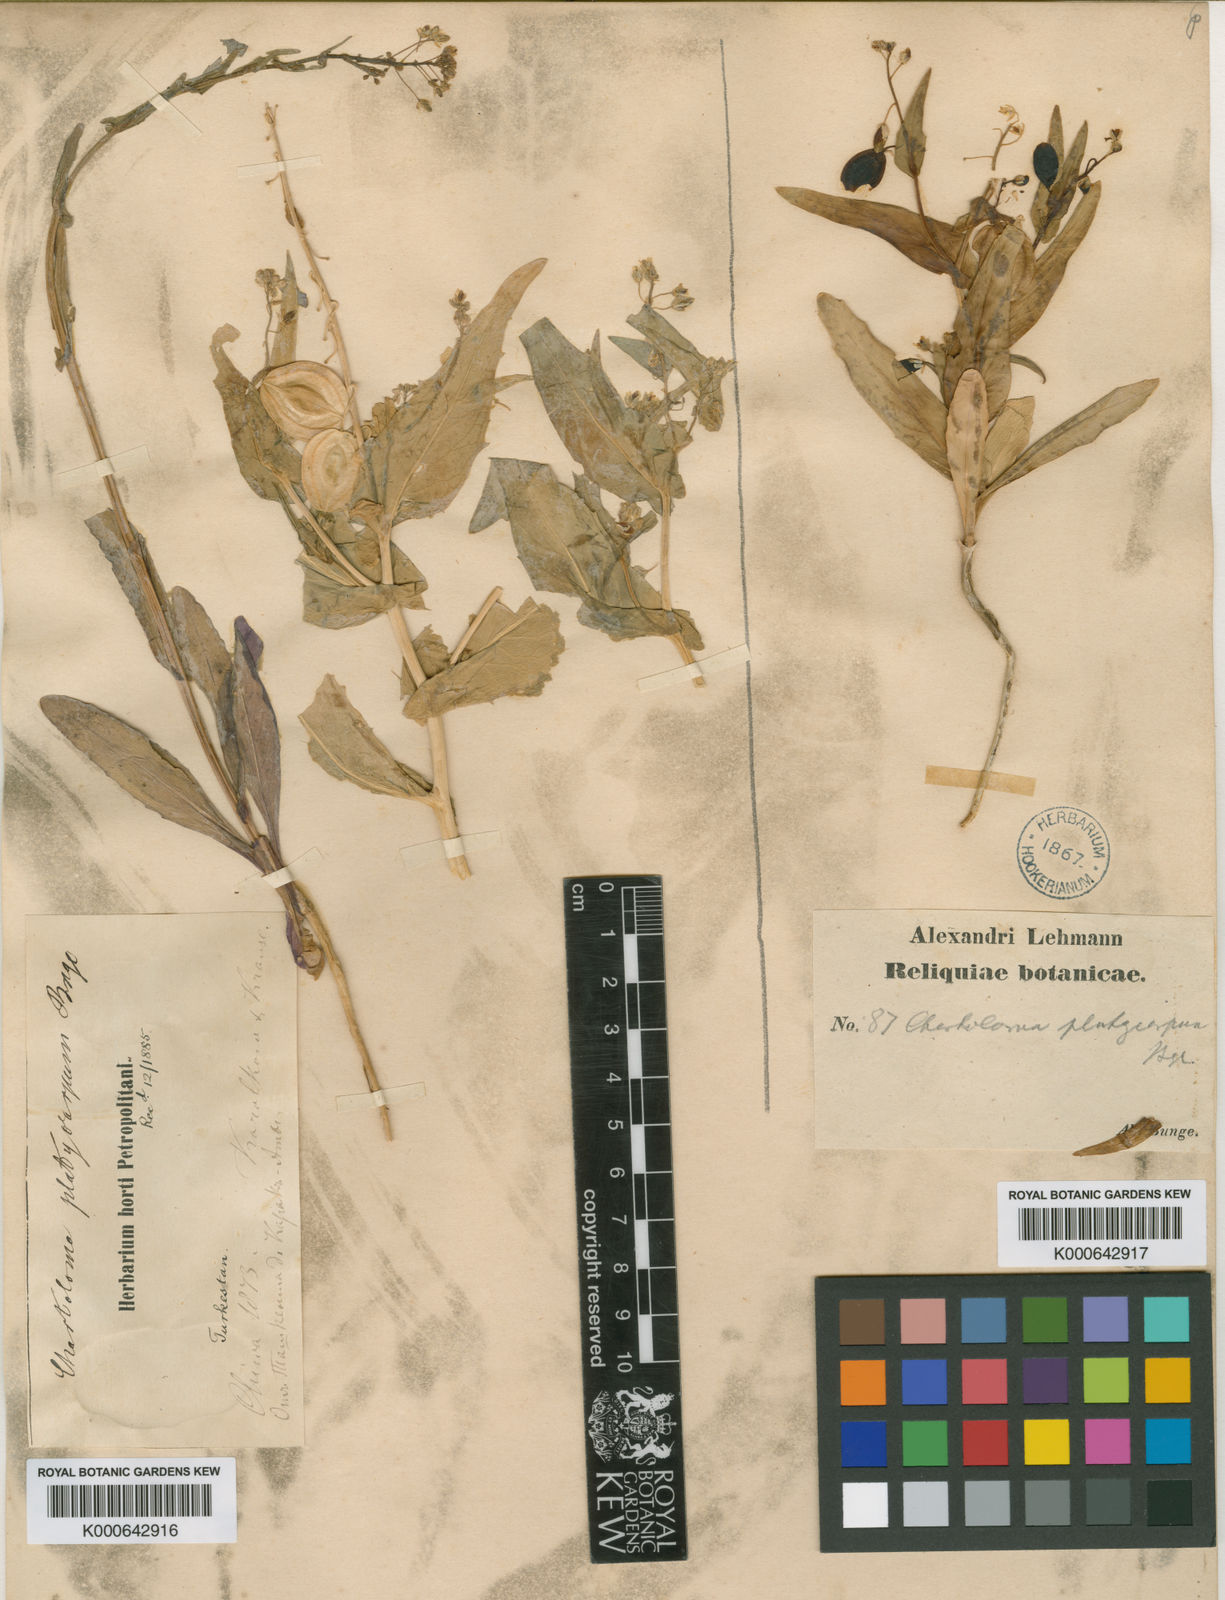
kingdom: Plantae
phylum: Tracheophyta
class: Magnoliopsida
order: Brassicales
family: Brassicaceae
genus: Chartoloma
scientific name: Chartoloma platycarpum
